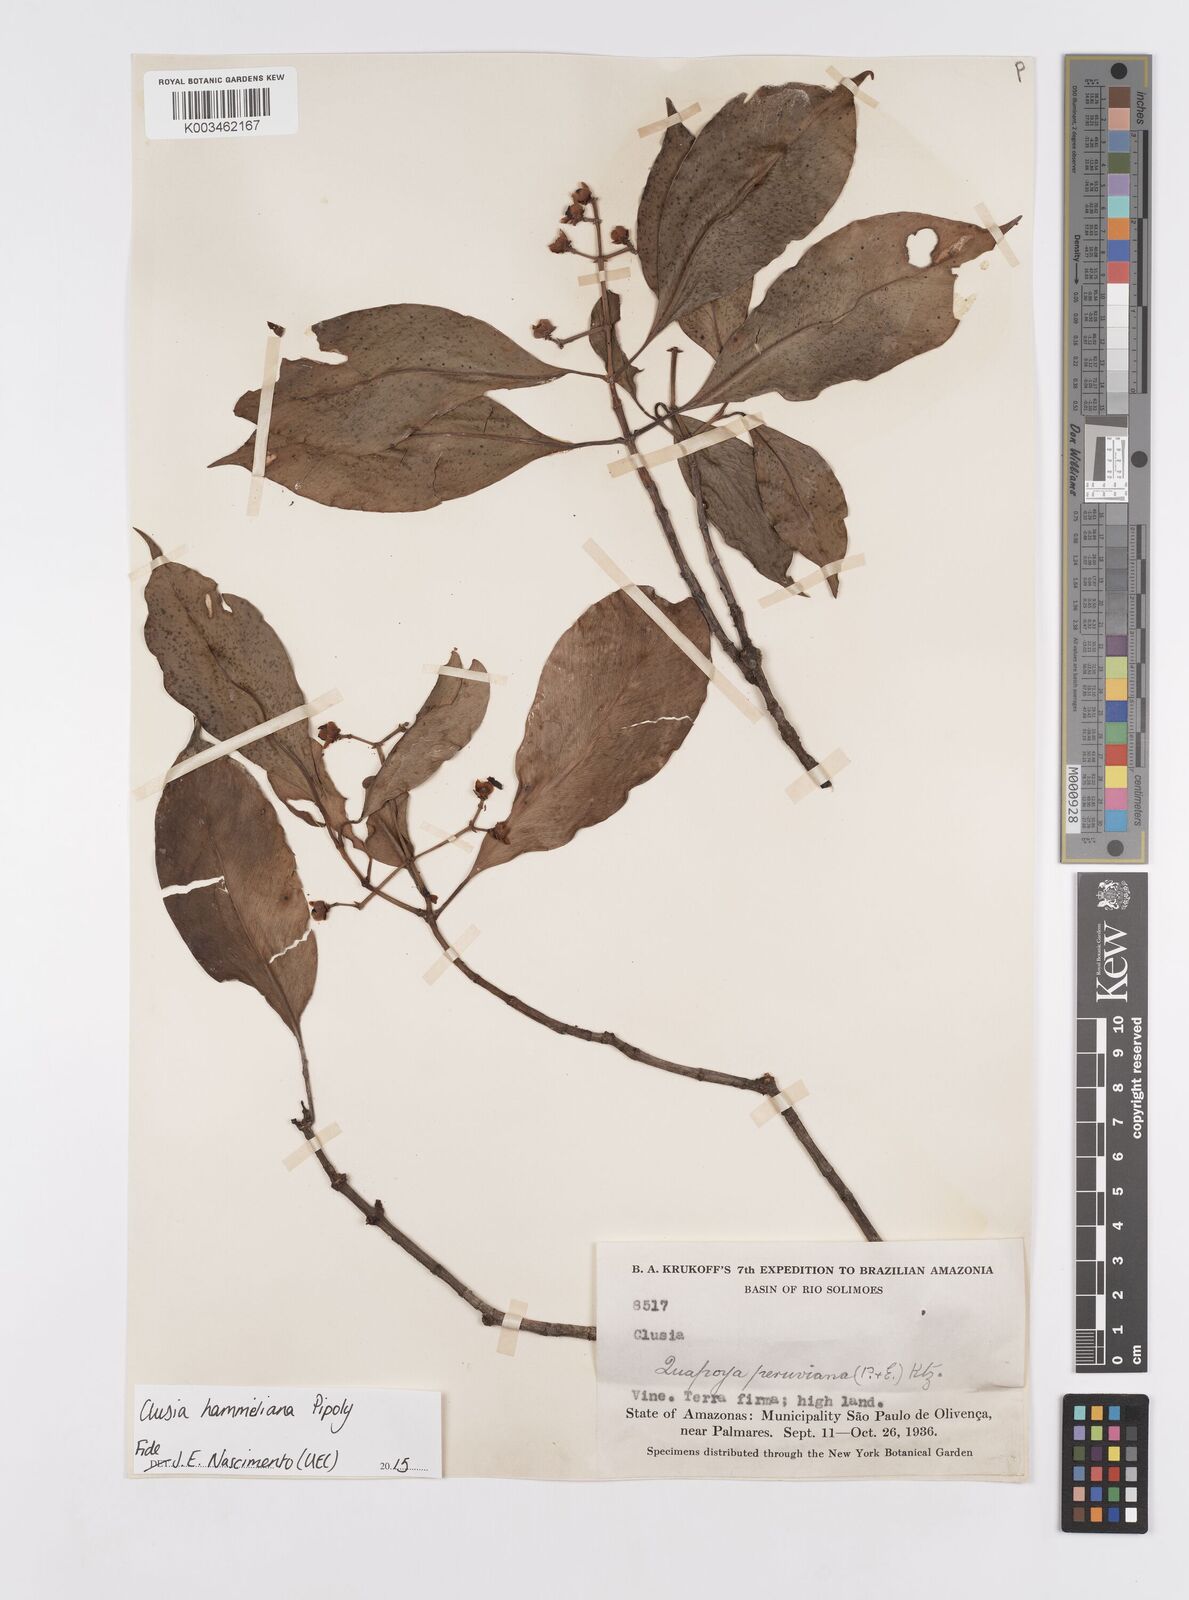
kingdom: Plantae
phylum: Tracheophyta
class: Magnoliopsida
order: Malpighiales
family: Clusiaceae
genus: Clusia
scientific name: Clusia hammeliana
